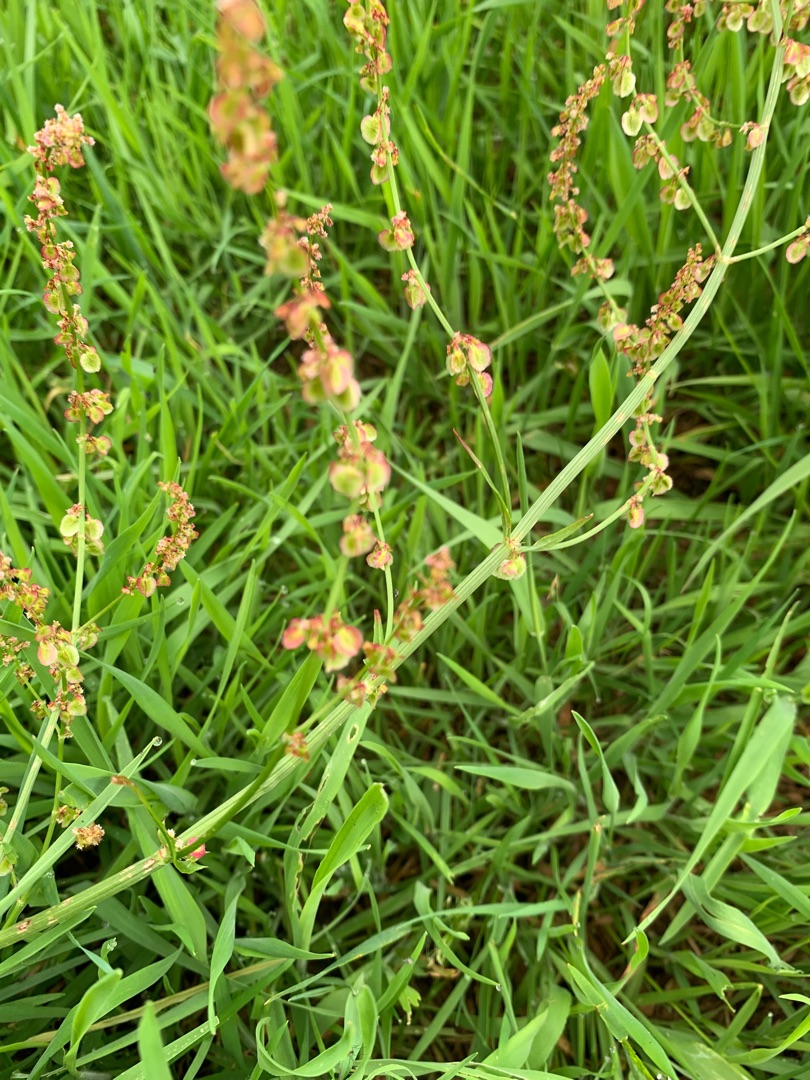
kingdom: Plantae
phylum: Tracheophyta
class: Magnoliopsida
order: Caryophyllales
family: Polygonaceae
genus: Rumex
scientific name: Rumex acetosa
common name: Almindelig syre
